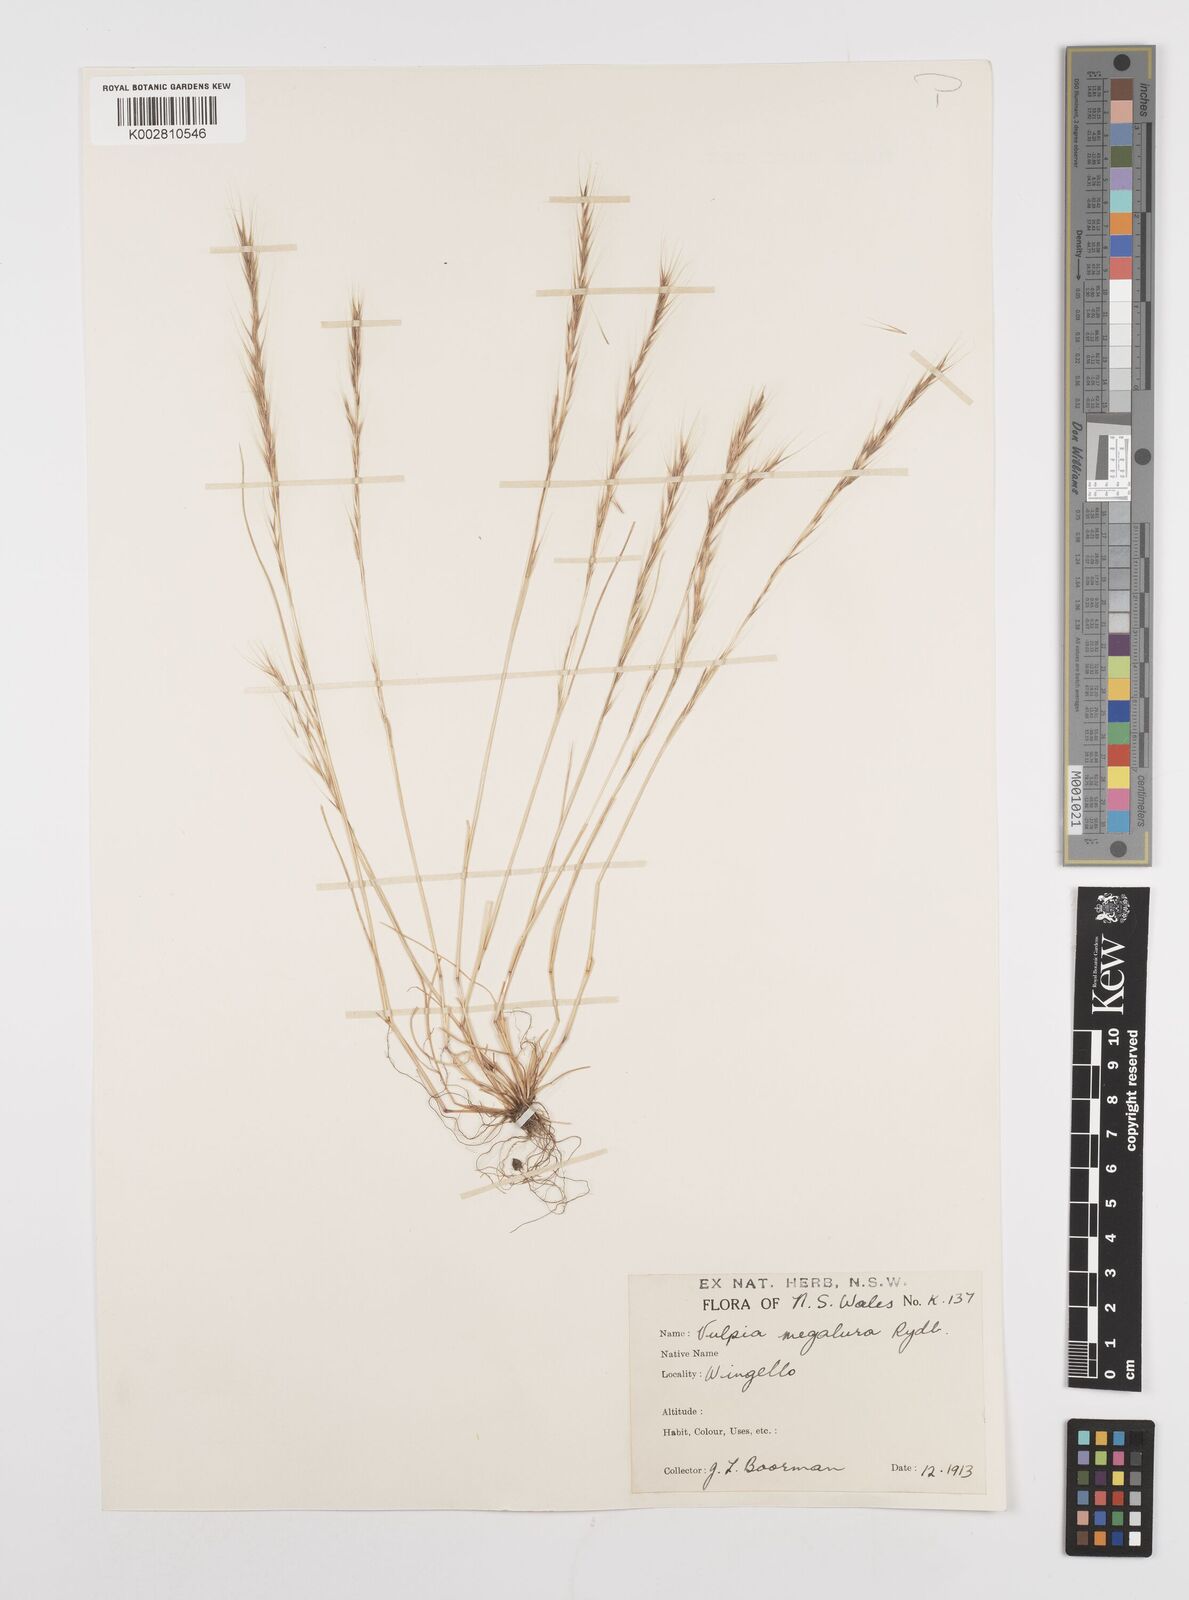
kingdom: Plantae
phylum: Tracheophyta
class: Liliopsida
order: Poales
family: Poaceae
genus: Festuca
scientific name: Festuca myuros
